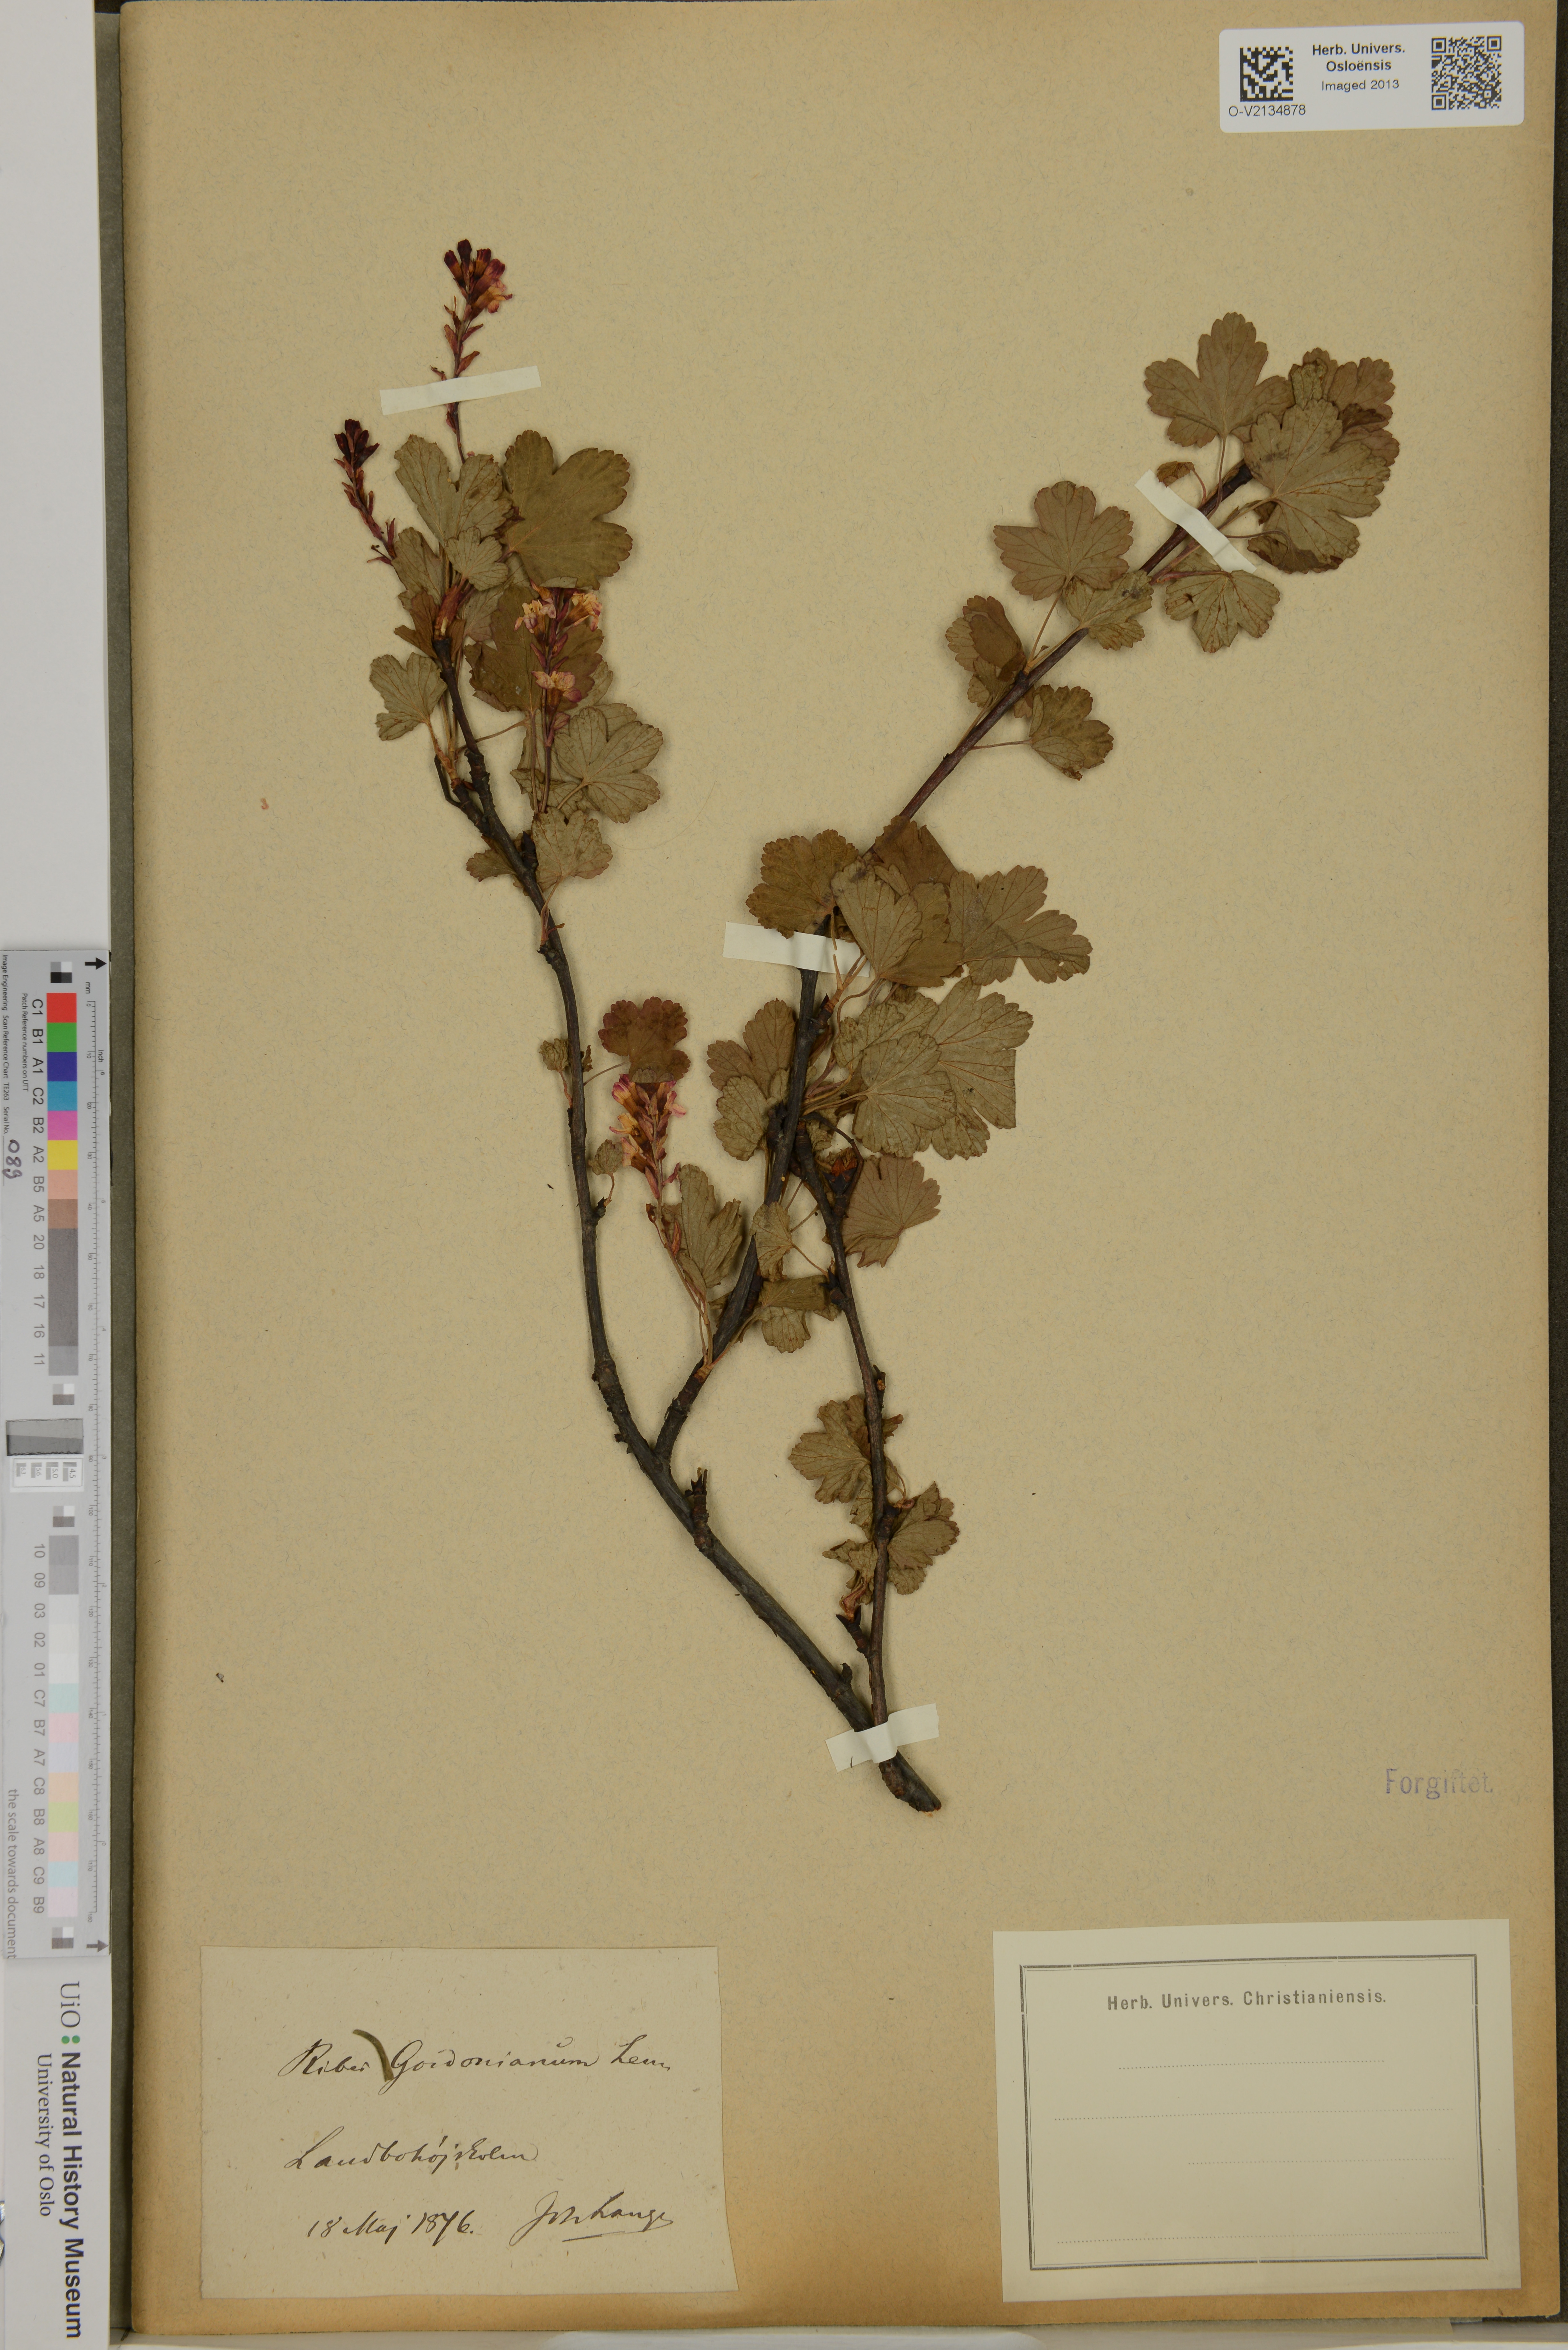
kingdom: Plantae
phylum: Tracheophyta
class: Magnoliopsida
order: Saxifragales
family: Grossulariaceae
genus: Ribes
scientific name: Ribes gordonianum
